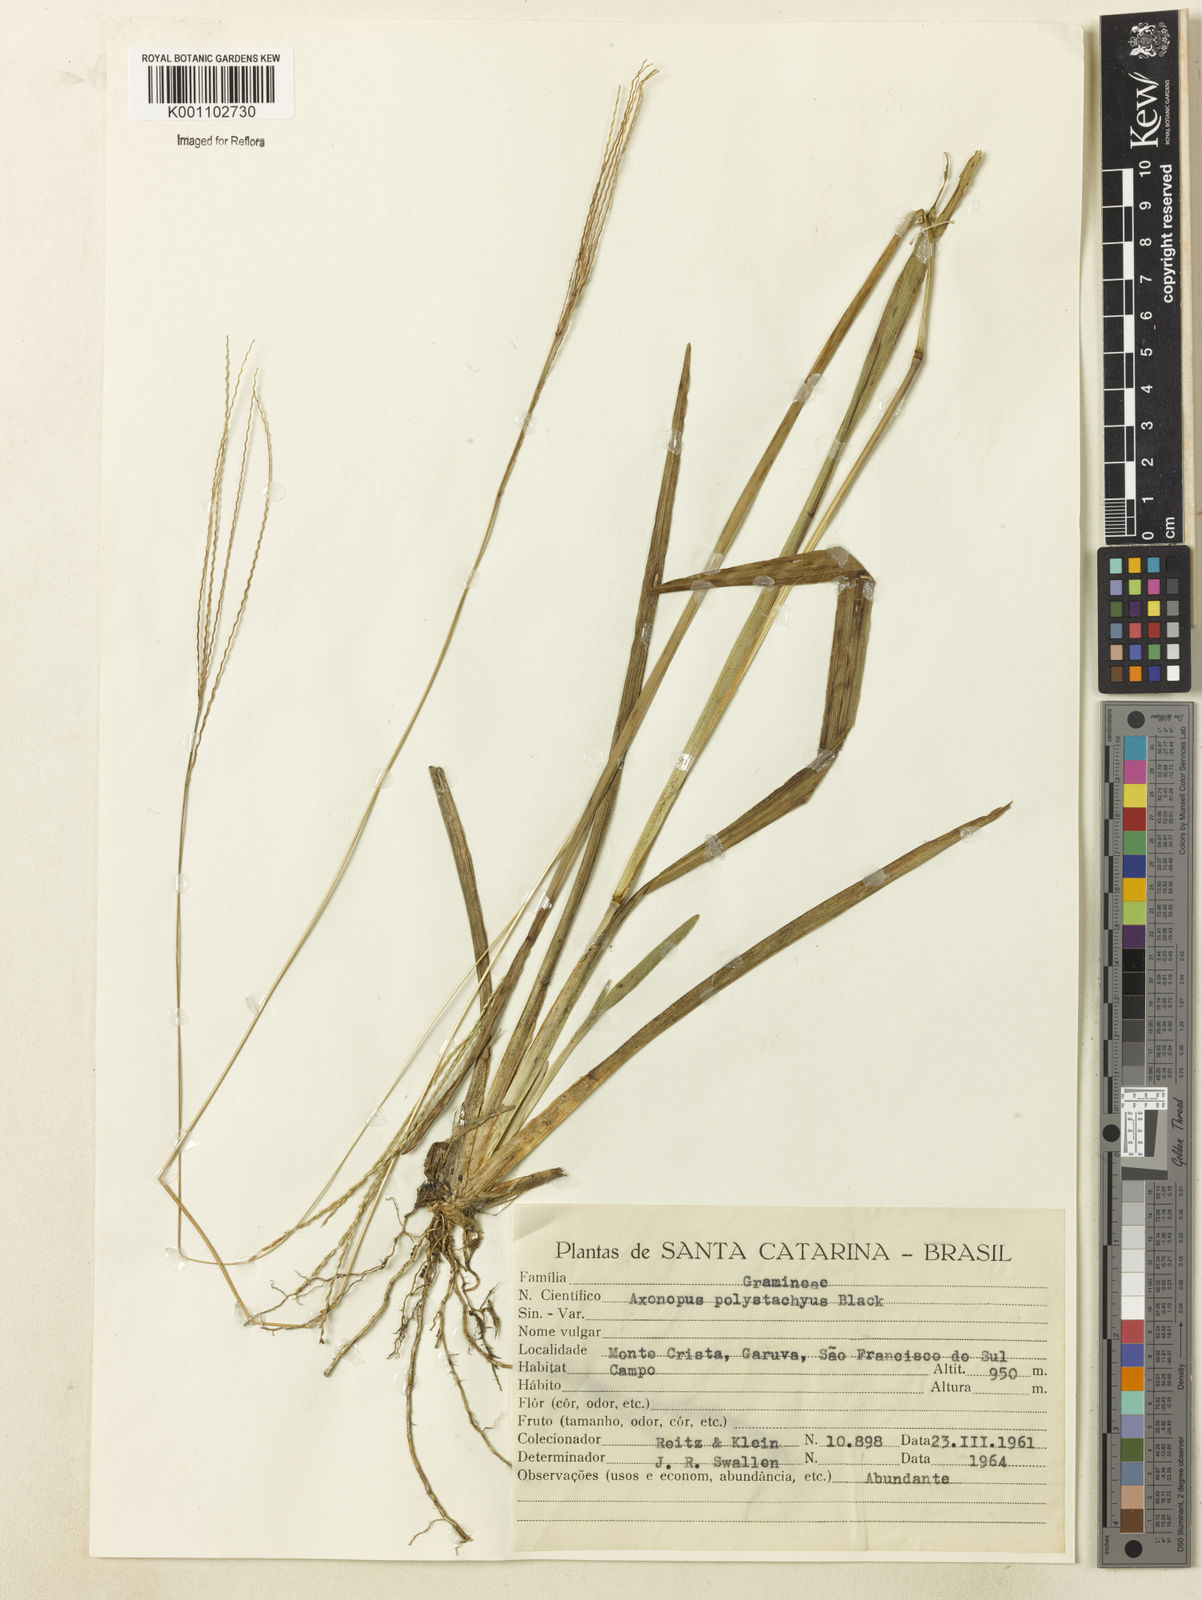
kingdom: Plantae
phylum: Tracheophyta
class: Liliopsida
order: Poales
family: Poaceae
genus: Axonopus
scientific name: Axonopus polystachyus
